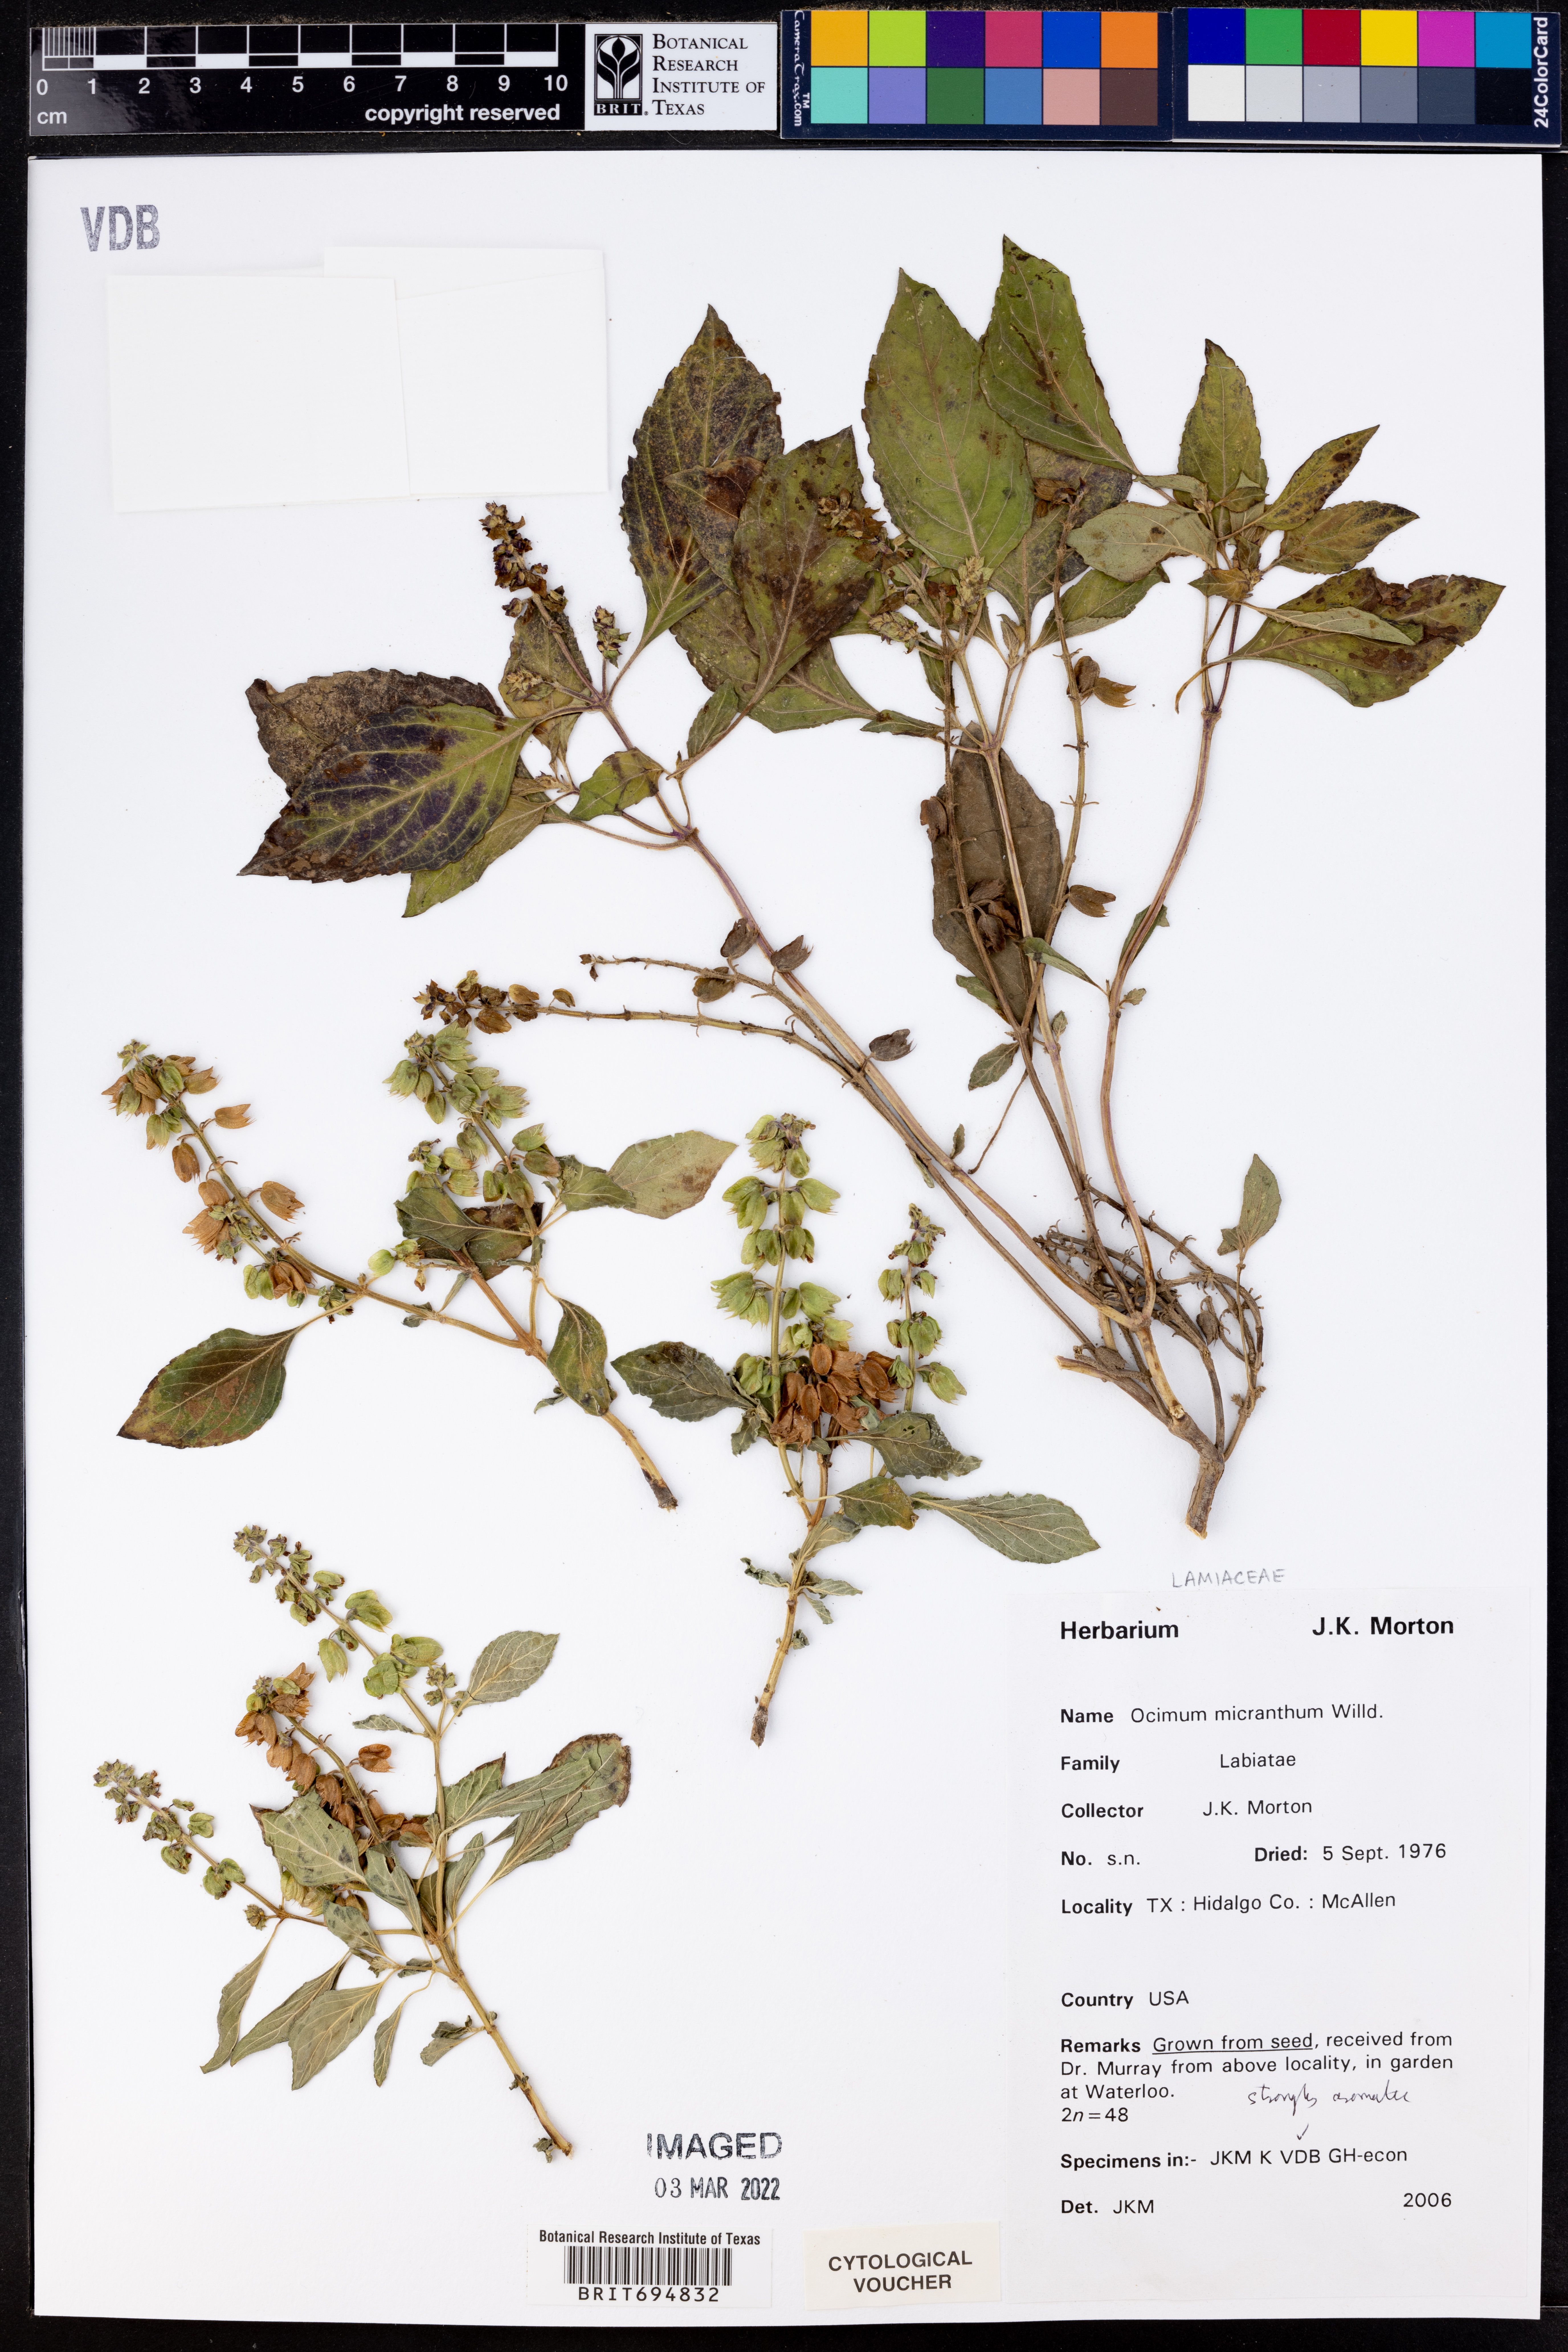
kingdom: Plantae
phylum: Tracheophyta
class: Magnoliopsida
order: Lamiales
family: Lamiaceae
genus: Ocimum
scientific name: Ocimum campechianum
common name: Mosquito basil
